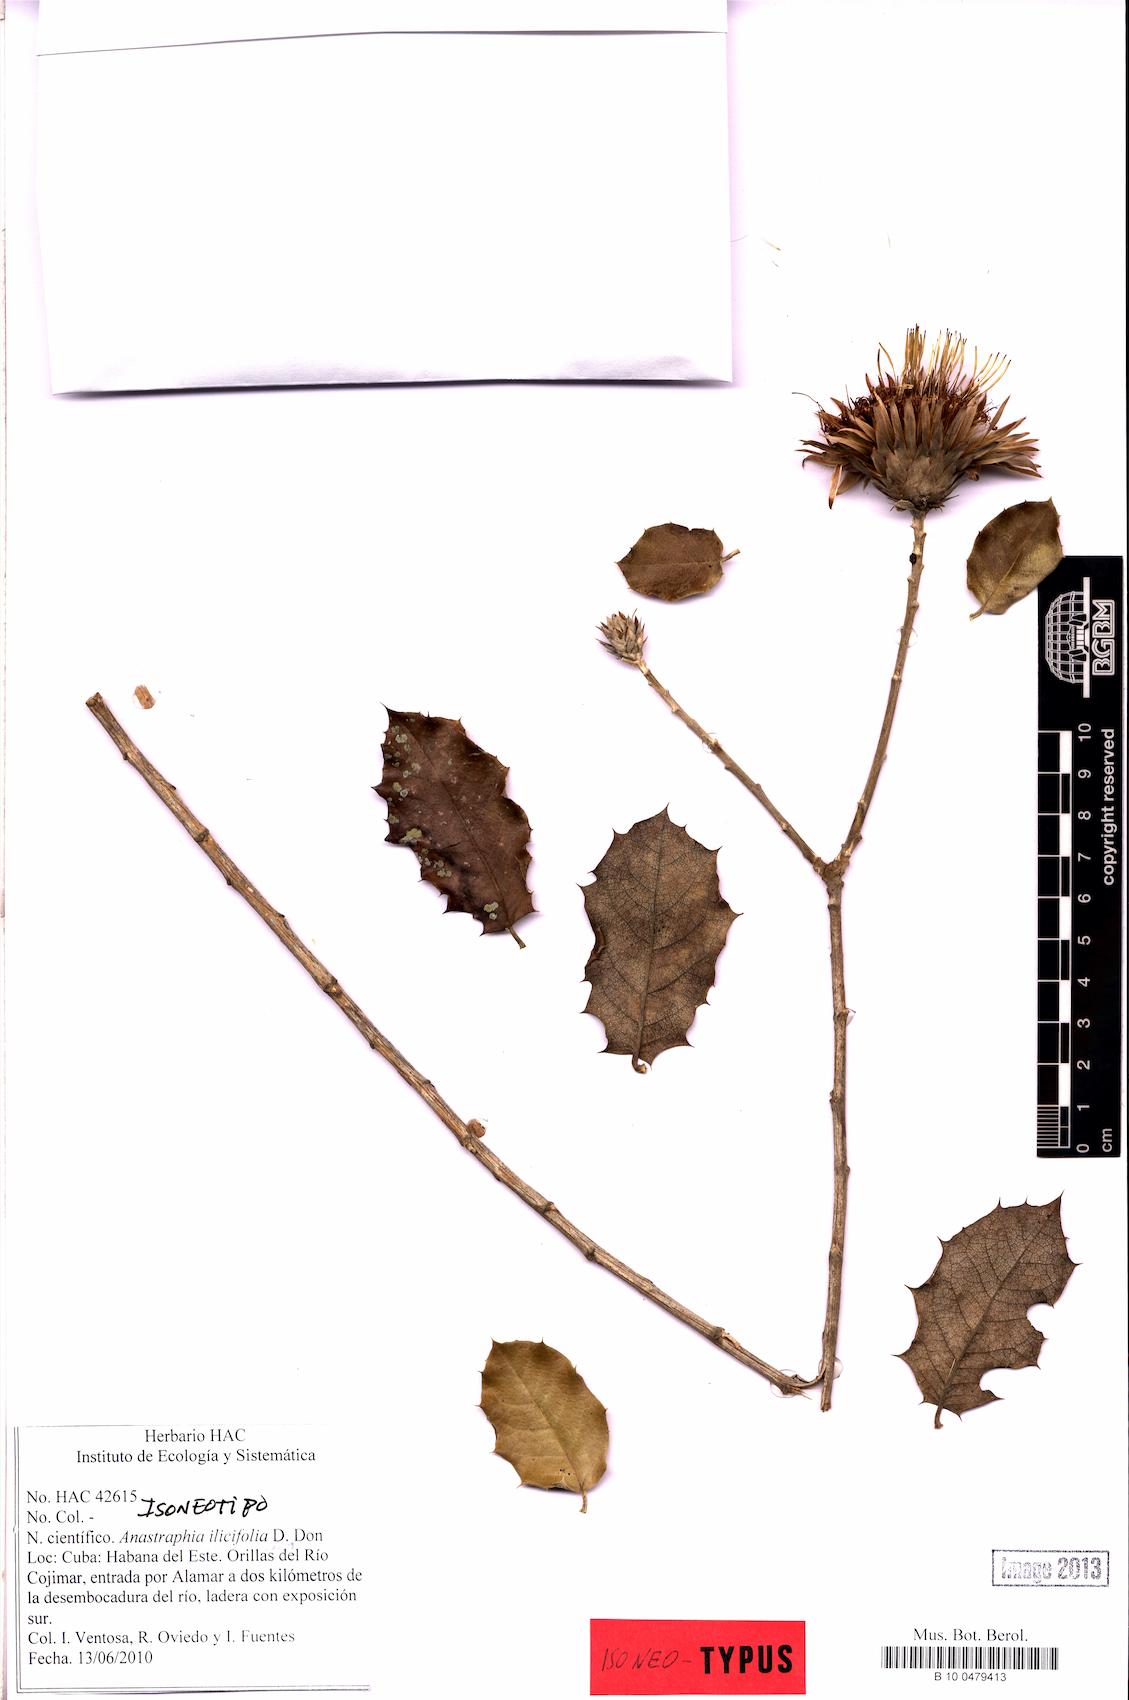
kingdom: Plantae
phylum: Tracheophyta
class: Magnoliopsida
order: Asterales
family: Asteraceae
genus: Anastraphia
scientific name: Anastraphia ilicifolia
